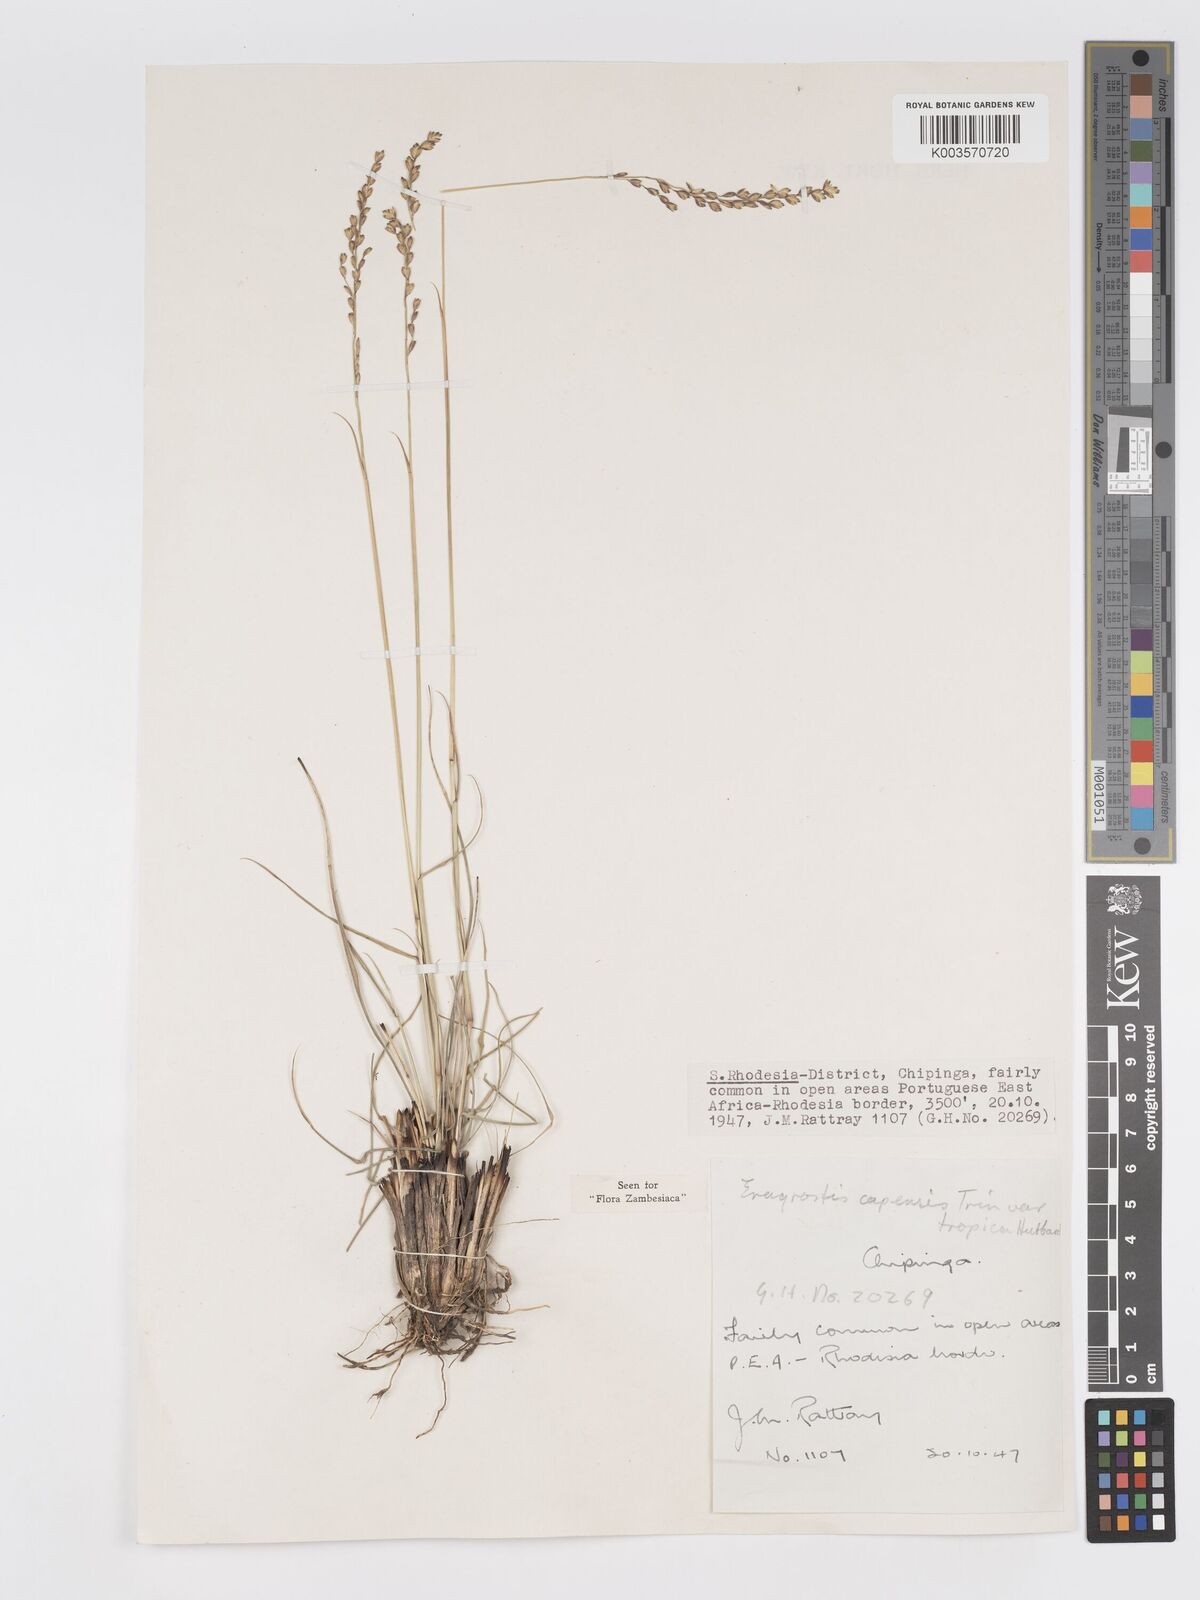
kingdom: Plantae
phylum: Tracheophyta
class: Liliopsida
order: Poales
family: Poaceae
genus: Eragrostis
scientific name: Eragrostis capensis
